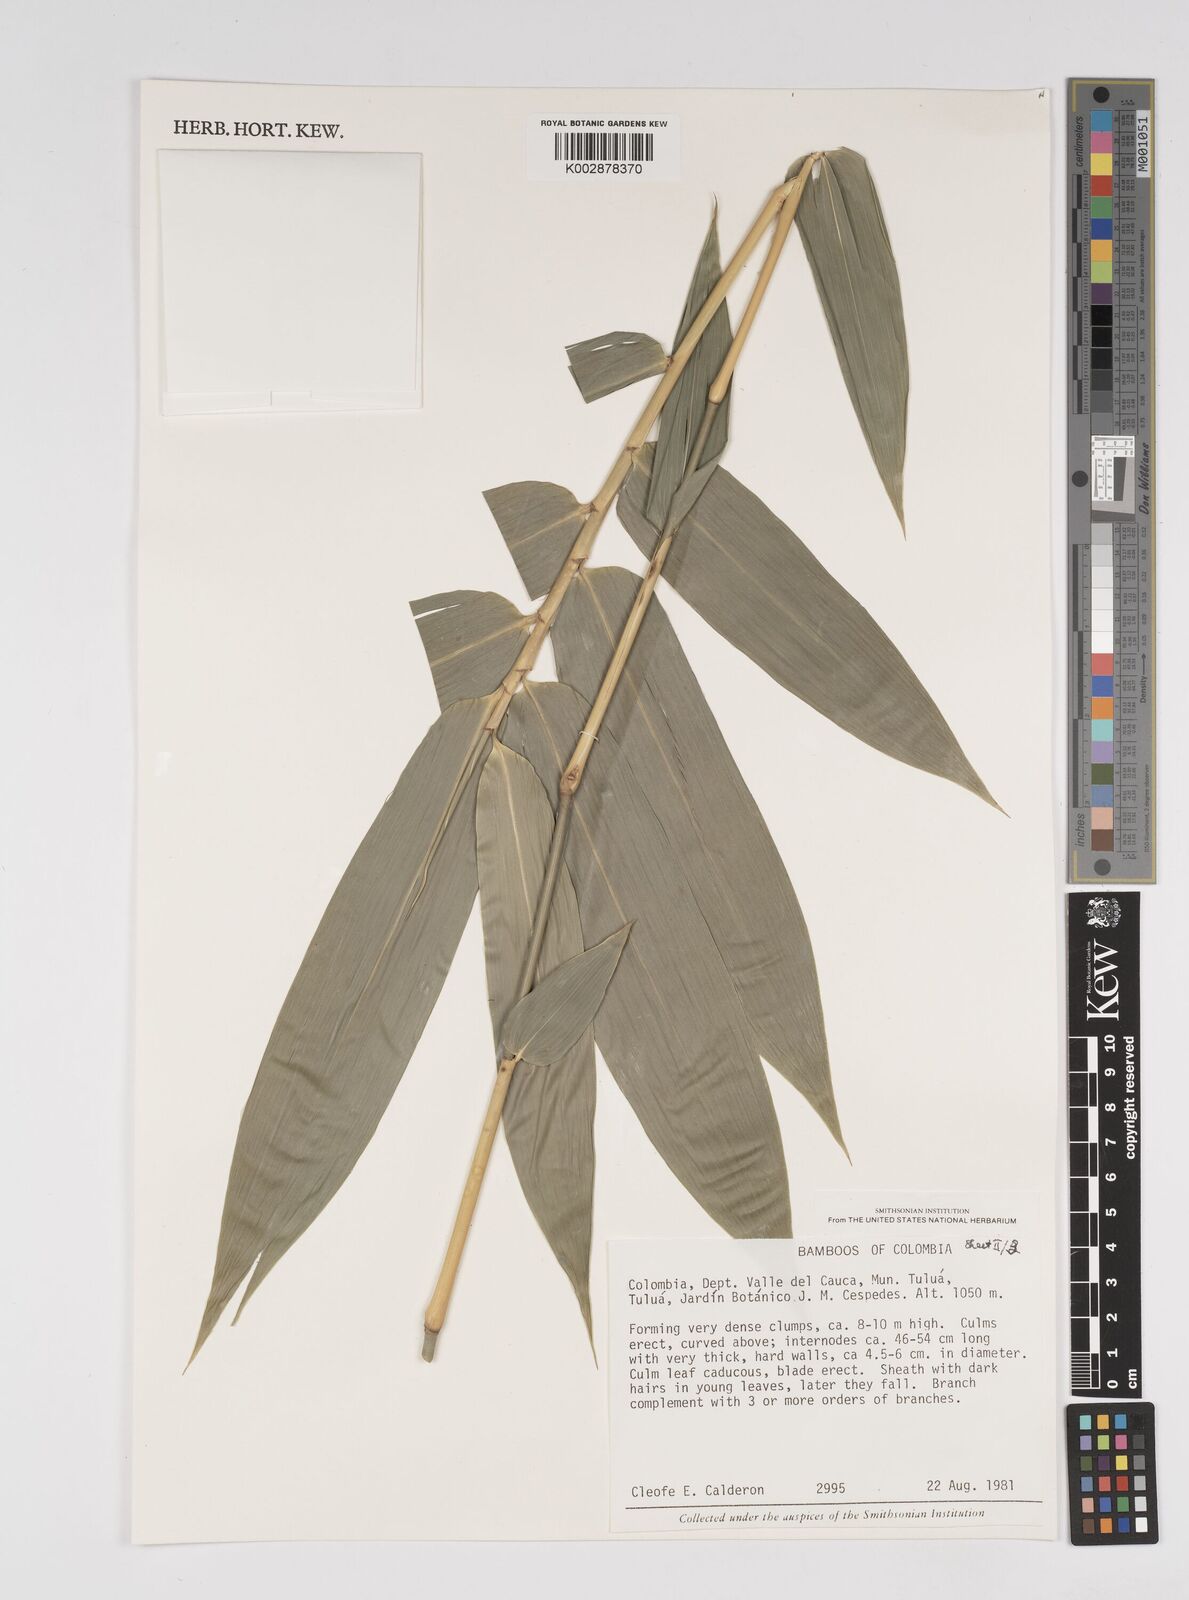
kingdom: Plantae
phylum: Tracheophyta
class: Liliopsida
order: Poales
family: Poaceae
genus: Bambusa
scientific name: Bambusa
